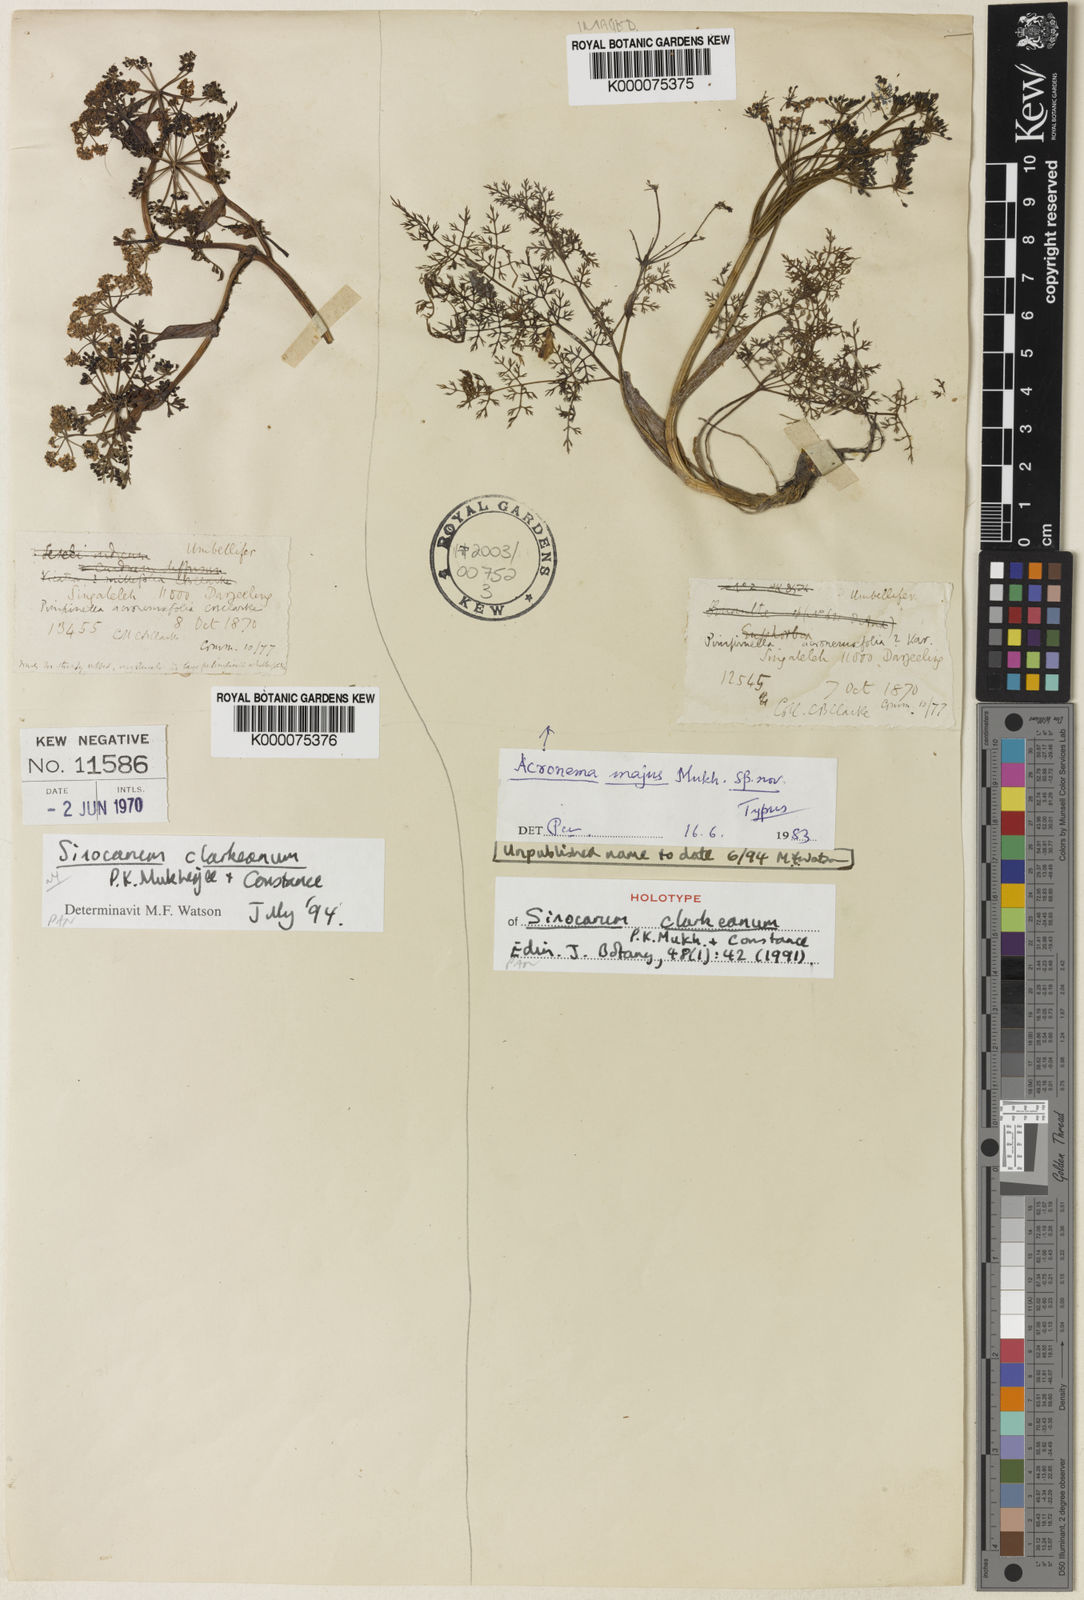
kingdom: Plantae
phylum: Tracheophyta
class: Magnoliopsida
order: Apiales
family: Apiaceae
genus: Sinocarum
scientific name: Sinocarum clarkeanum
